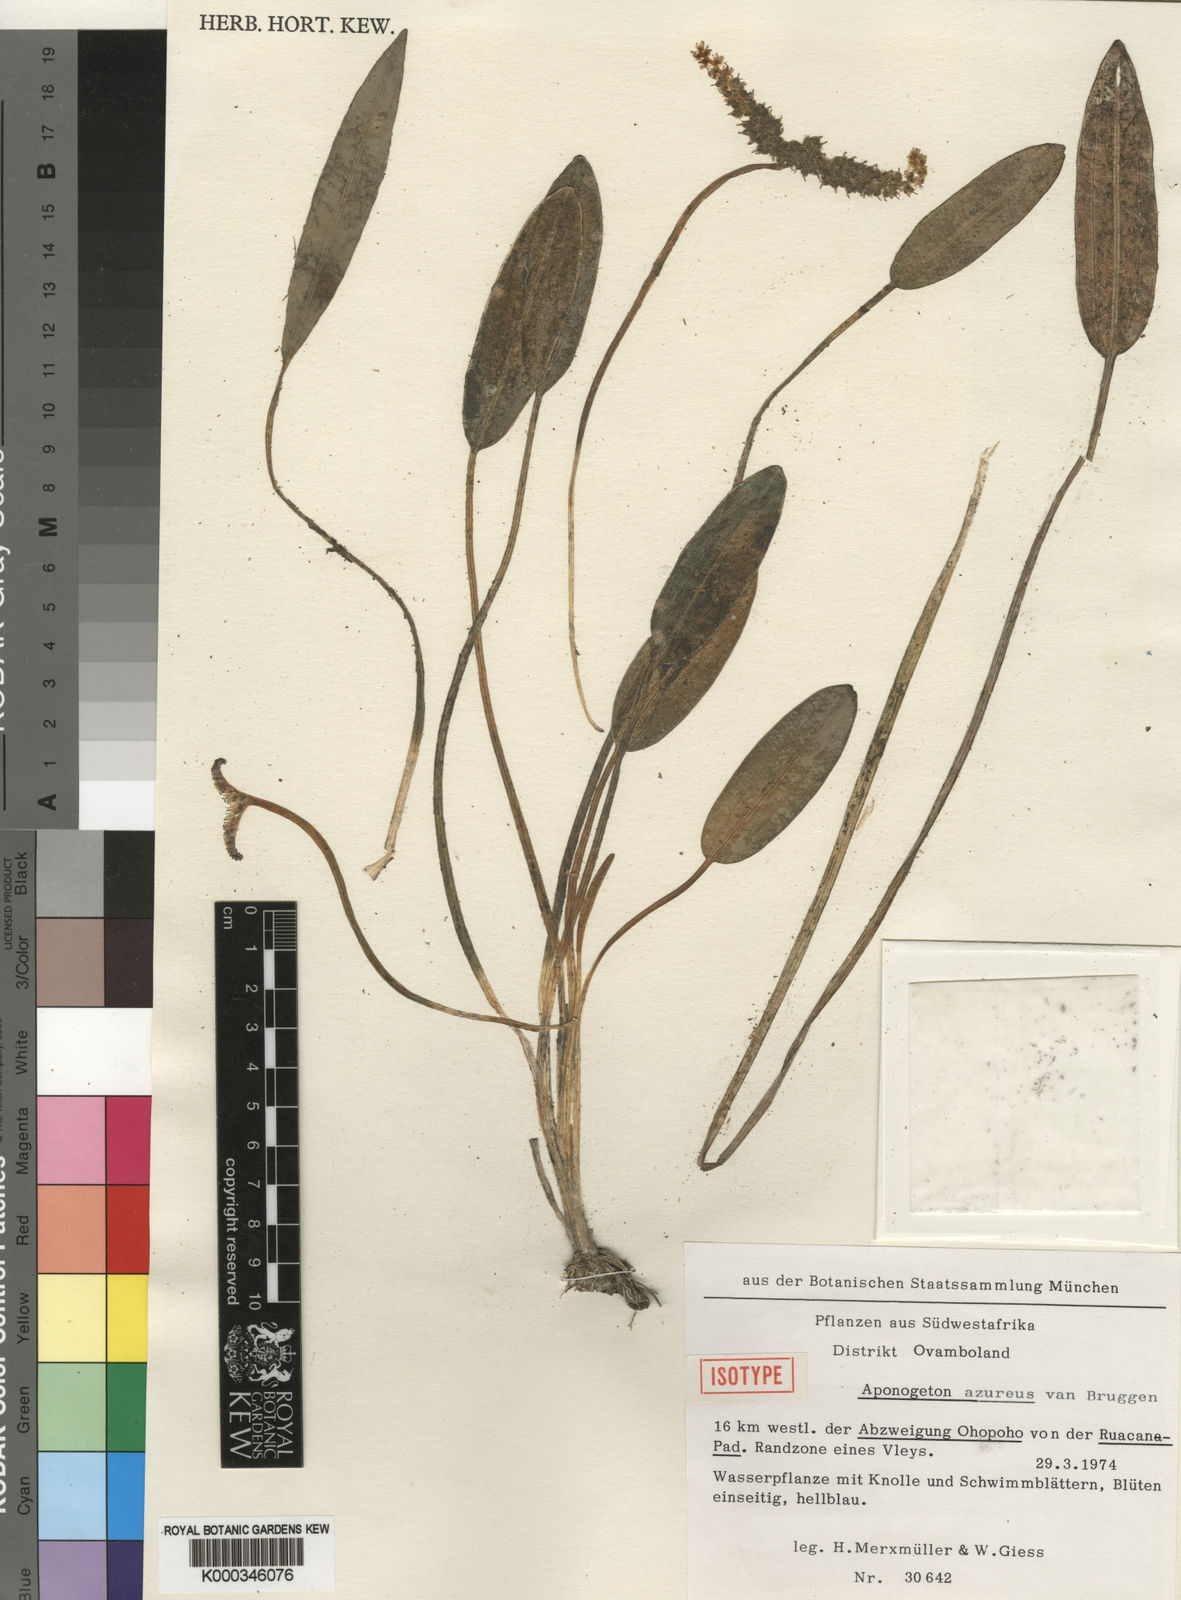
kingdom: Plantae
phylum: Tracheophyta
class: Liliopsida
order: Alismatales
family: Aponogetonaceae
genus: Aponogeton
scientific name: Aponogeton azureus
